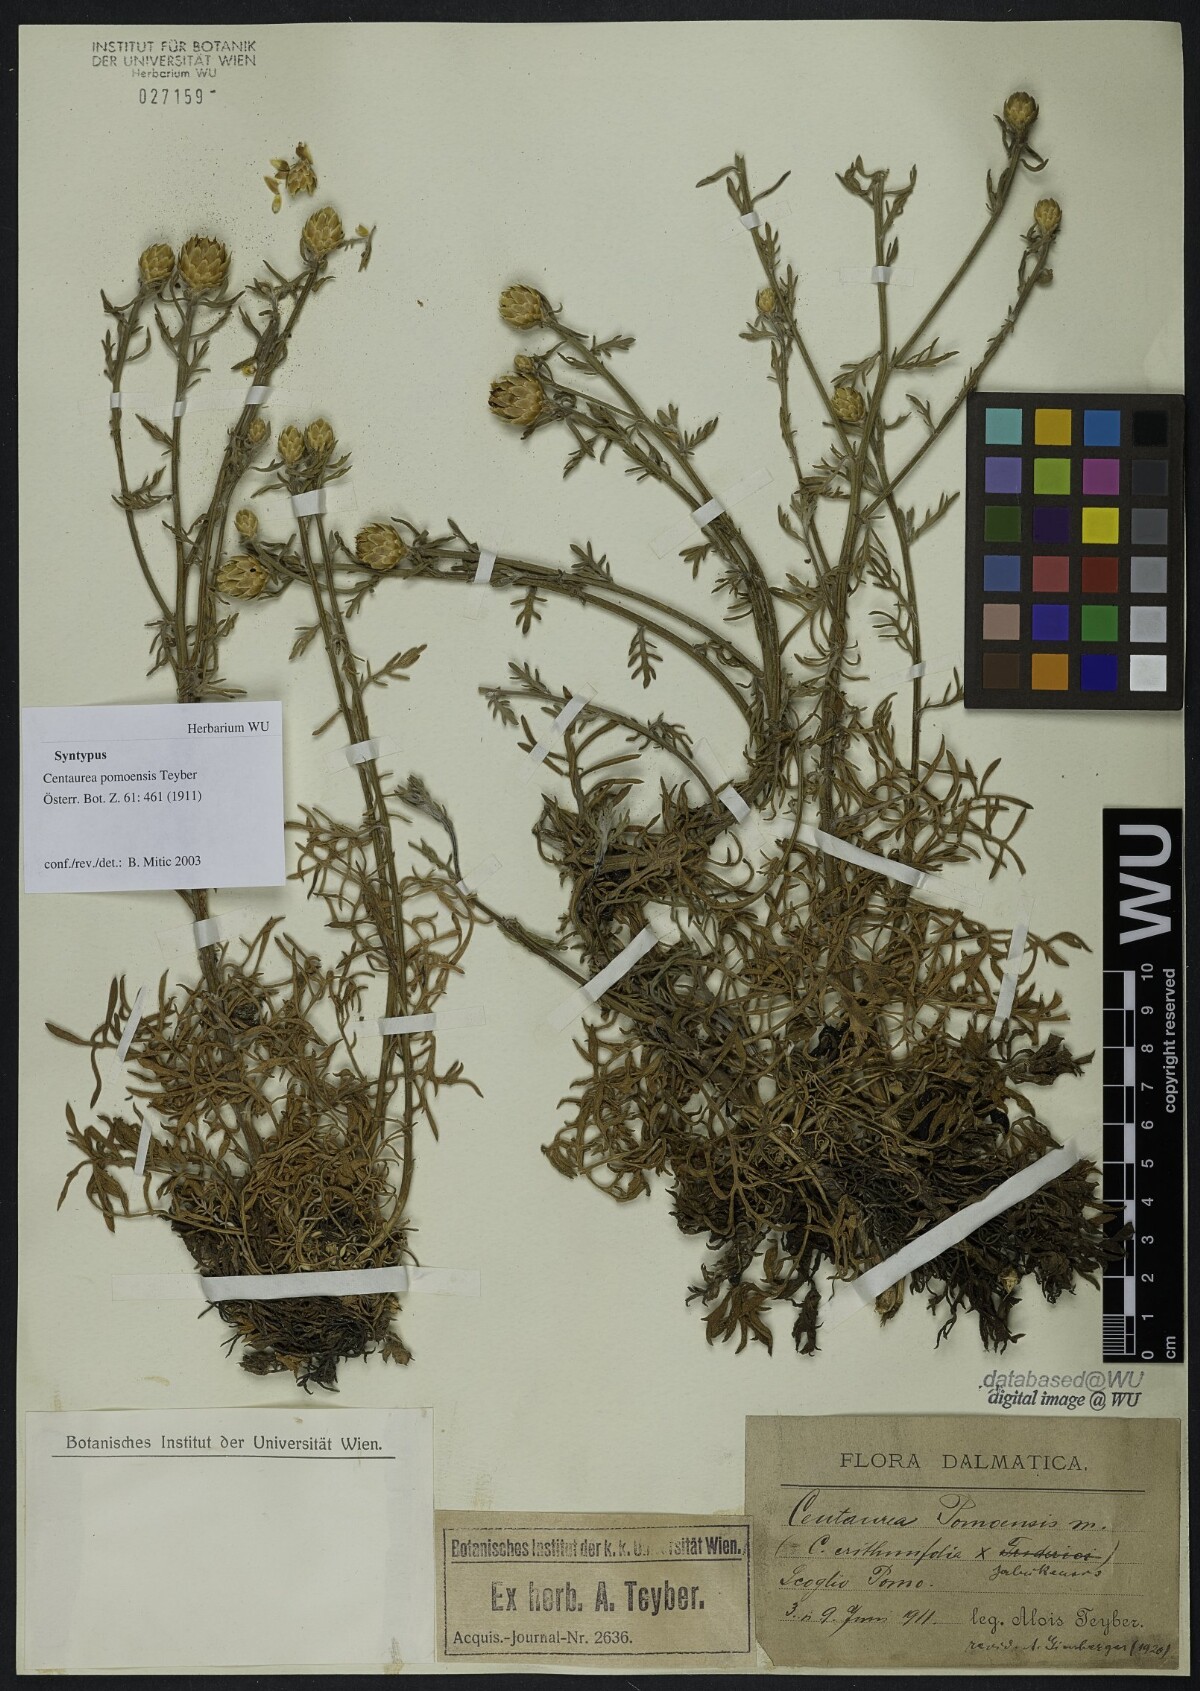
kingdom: Plantae
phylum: Tracheophyta
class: Magnoliopsida
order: Asterales
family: Asteraceae
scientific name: Asteraceae
